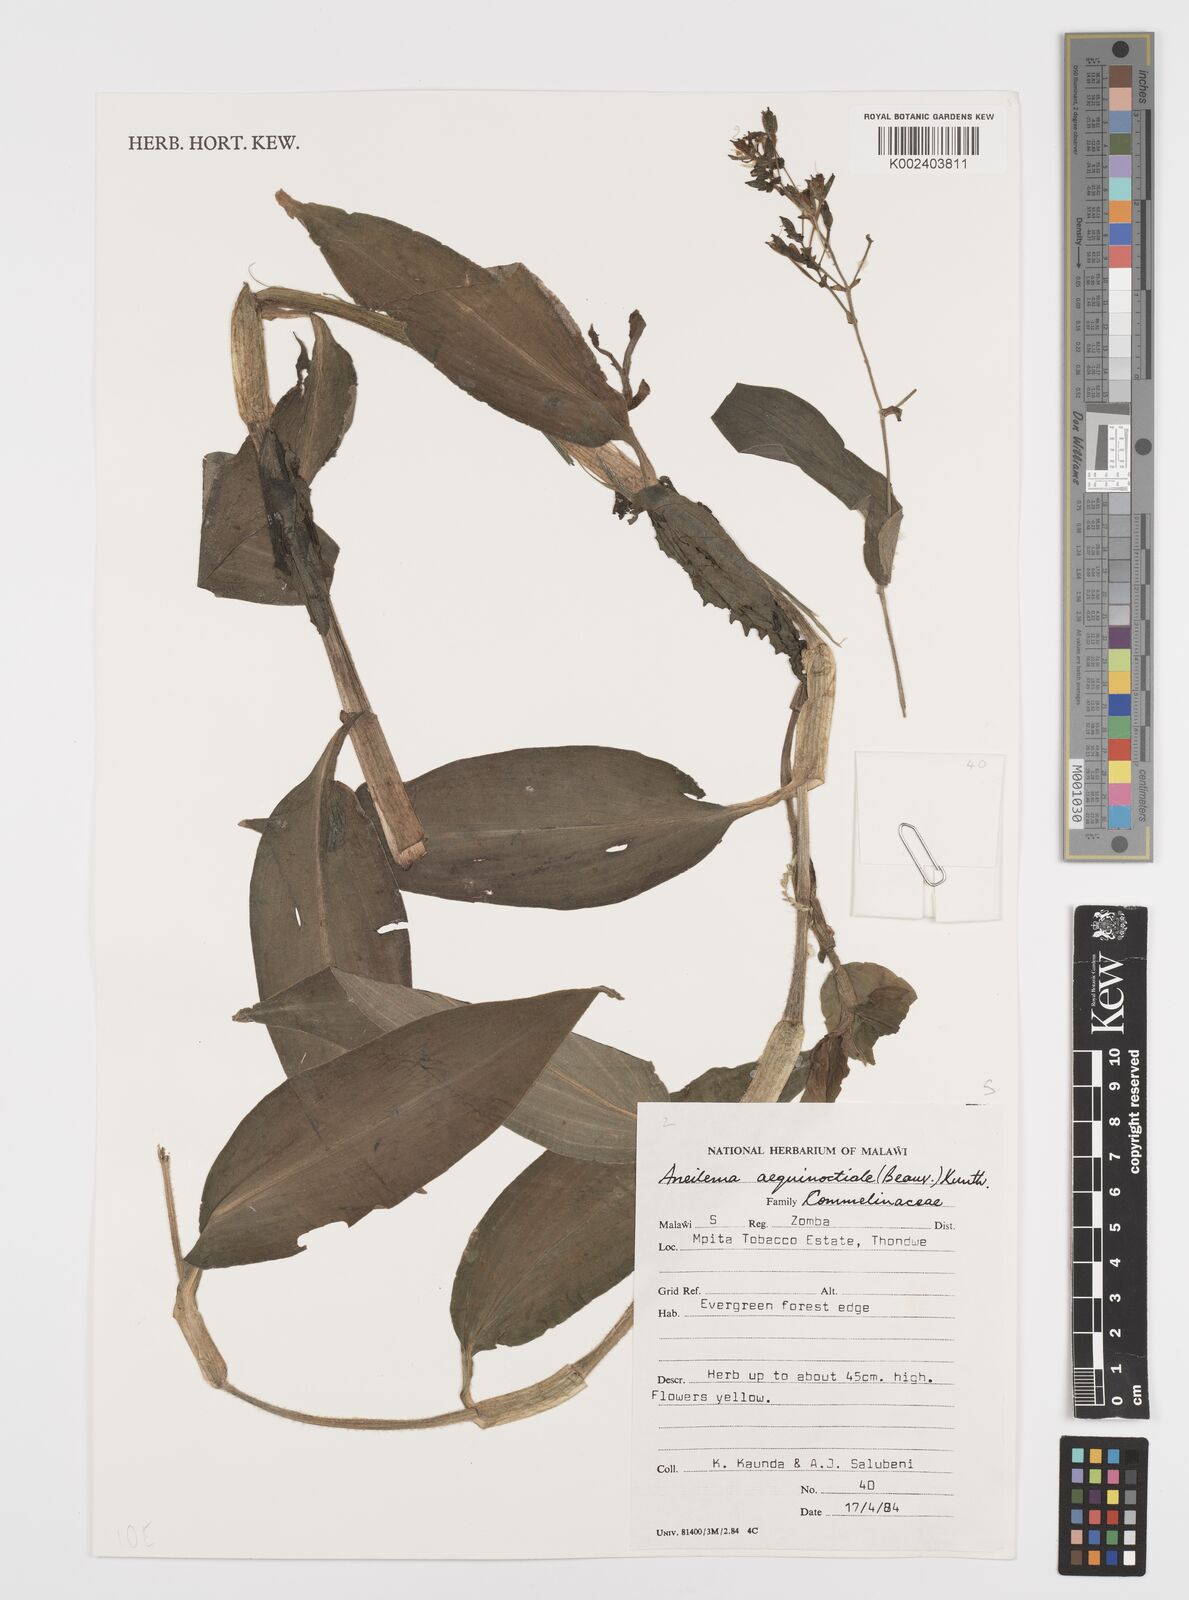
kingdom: Plantae
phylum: Tracheophyta
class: Liliopsida
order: Commelinales
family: Commelinaceae
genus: Aneilema
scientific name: Aneilema aequinoctiale
